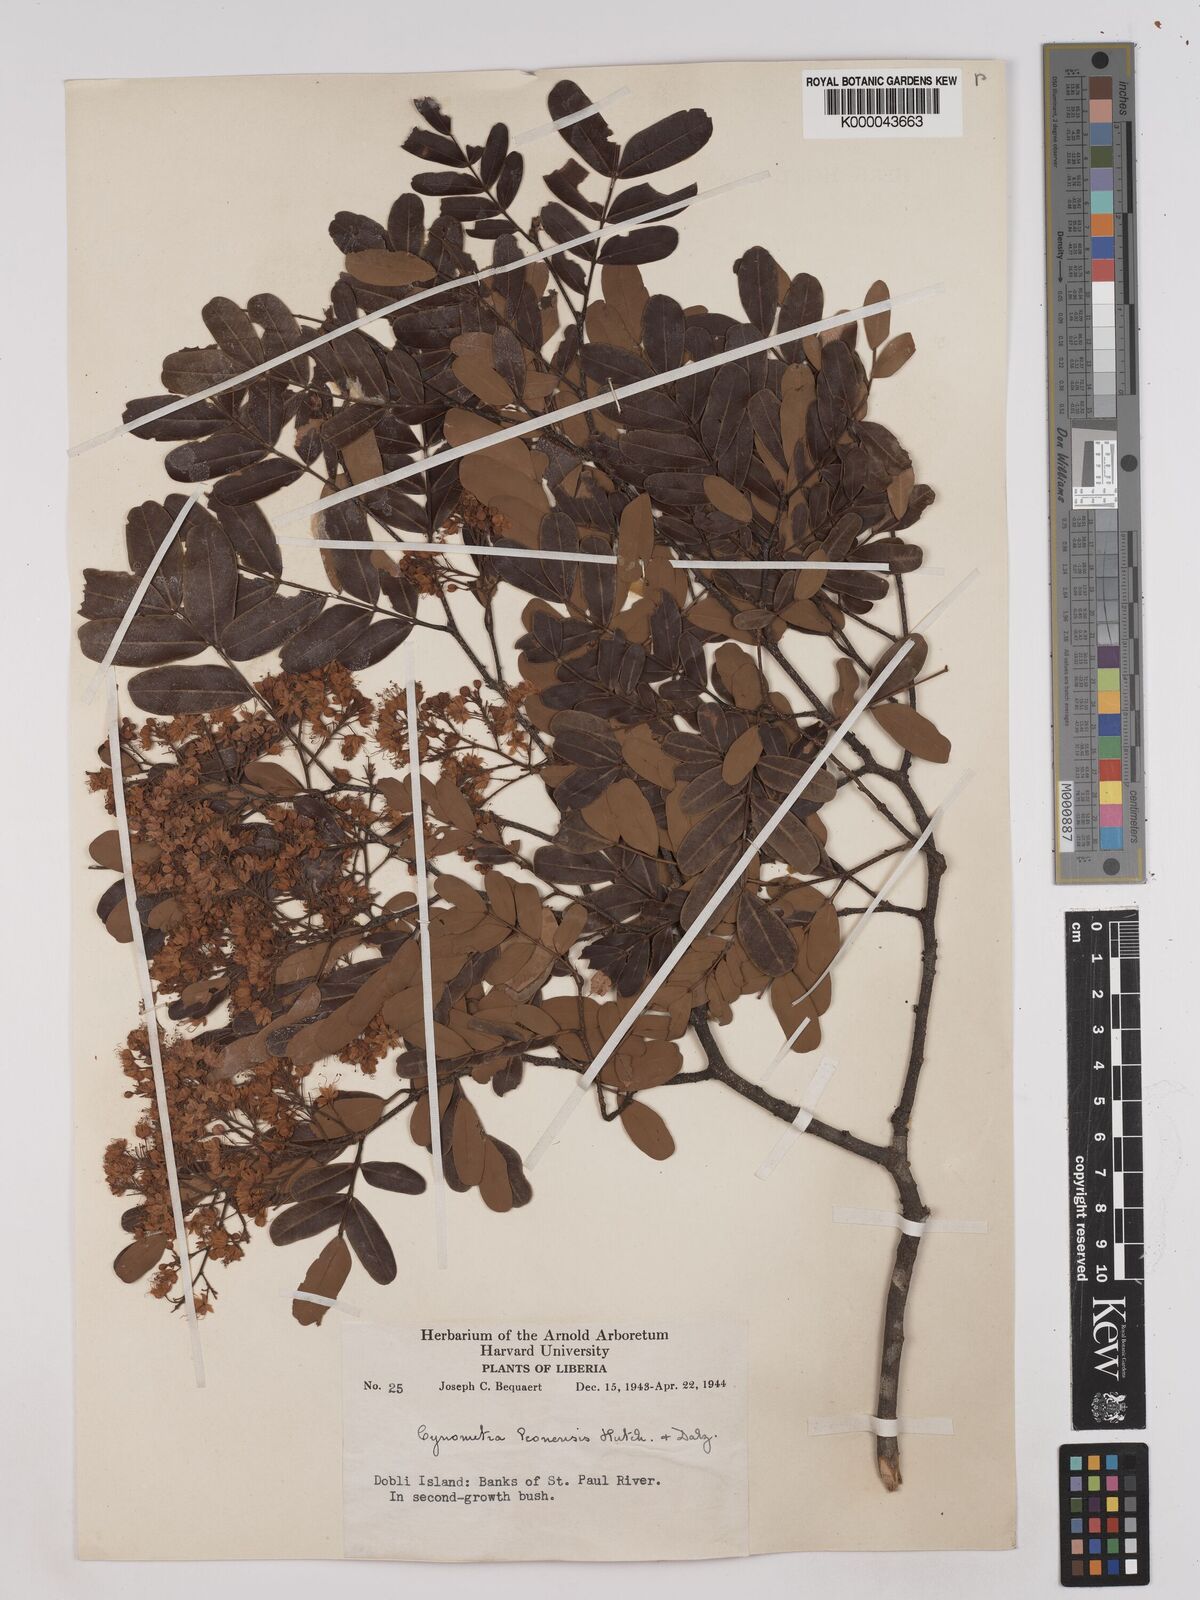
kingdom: Plantae
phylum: Tracheophyta
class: Magnoliopsida
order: Fabales
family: Fabaceae
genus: Cynometra
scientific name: Cynometra leonensis
